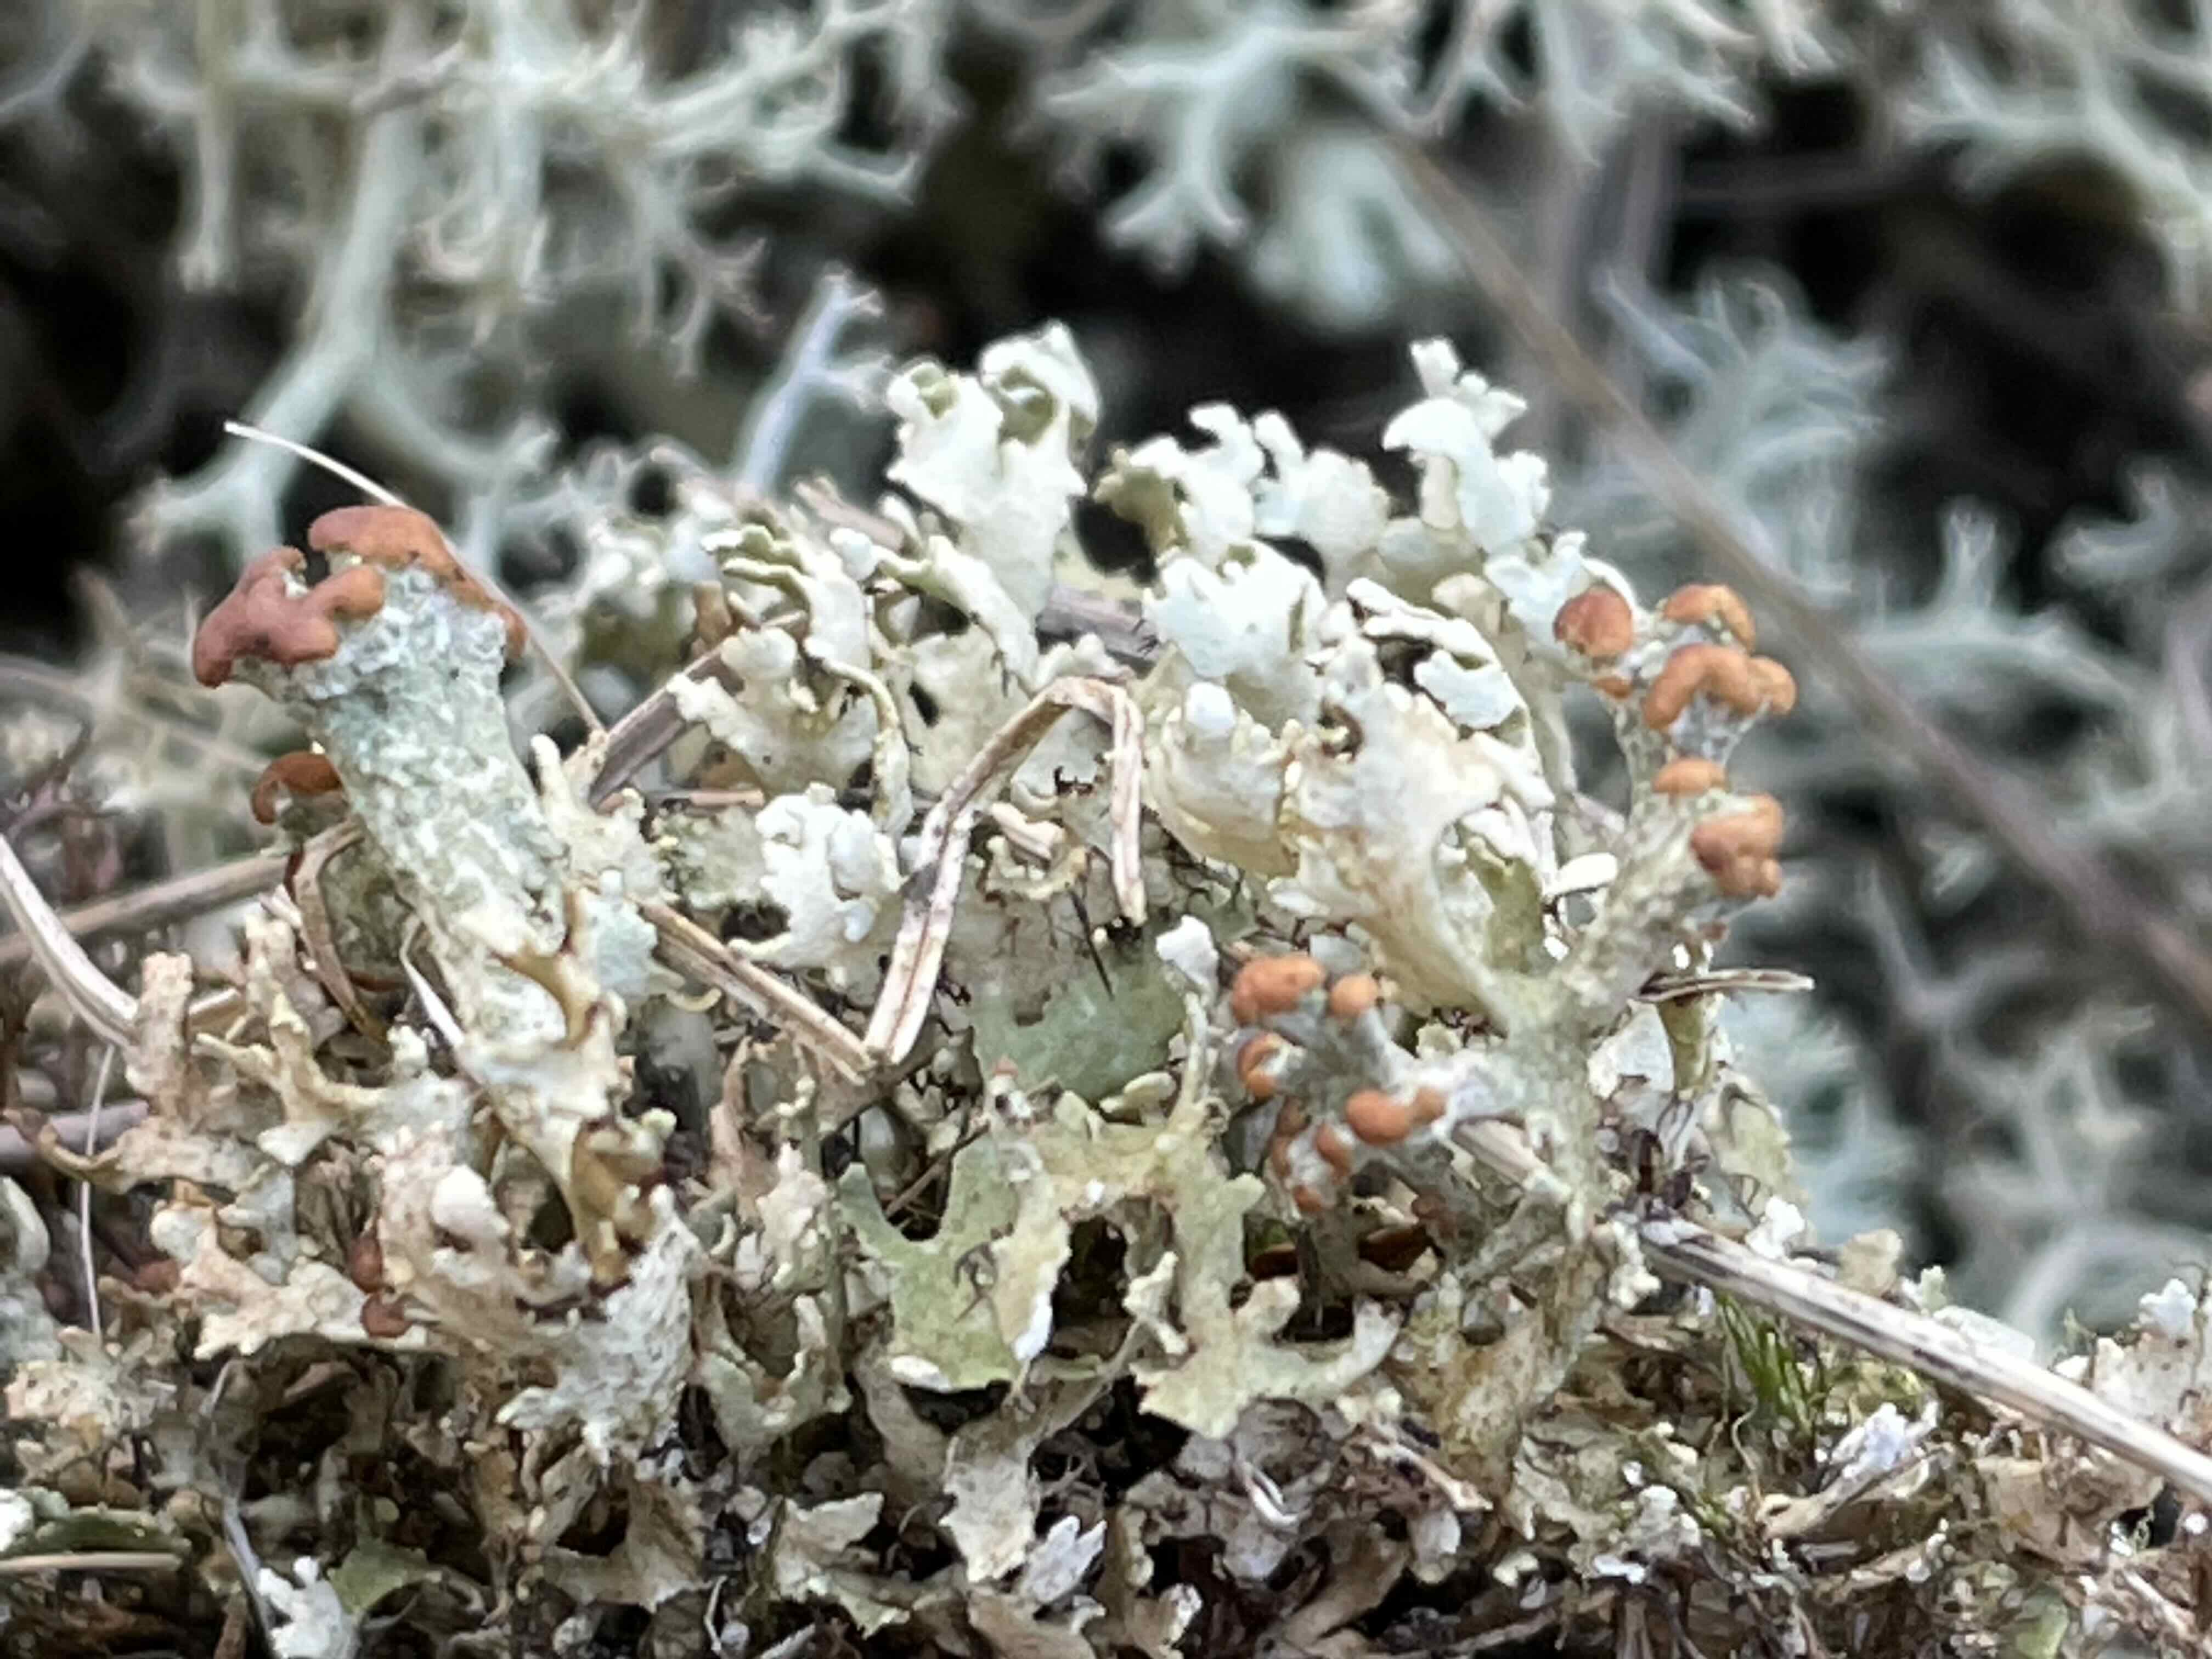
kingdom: Fungi
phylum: Ascomycota
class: Lecanoromycetes
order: Lecanorales
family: Cladoniaceae
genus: Cladonia
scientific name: Cladonia foliacea
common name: fliget bægerlav
